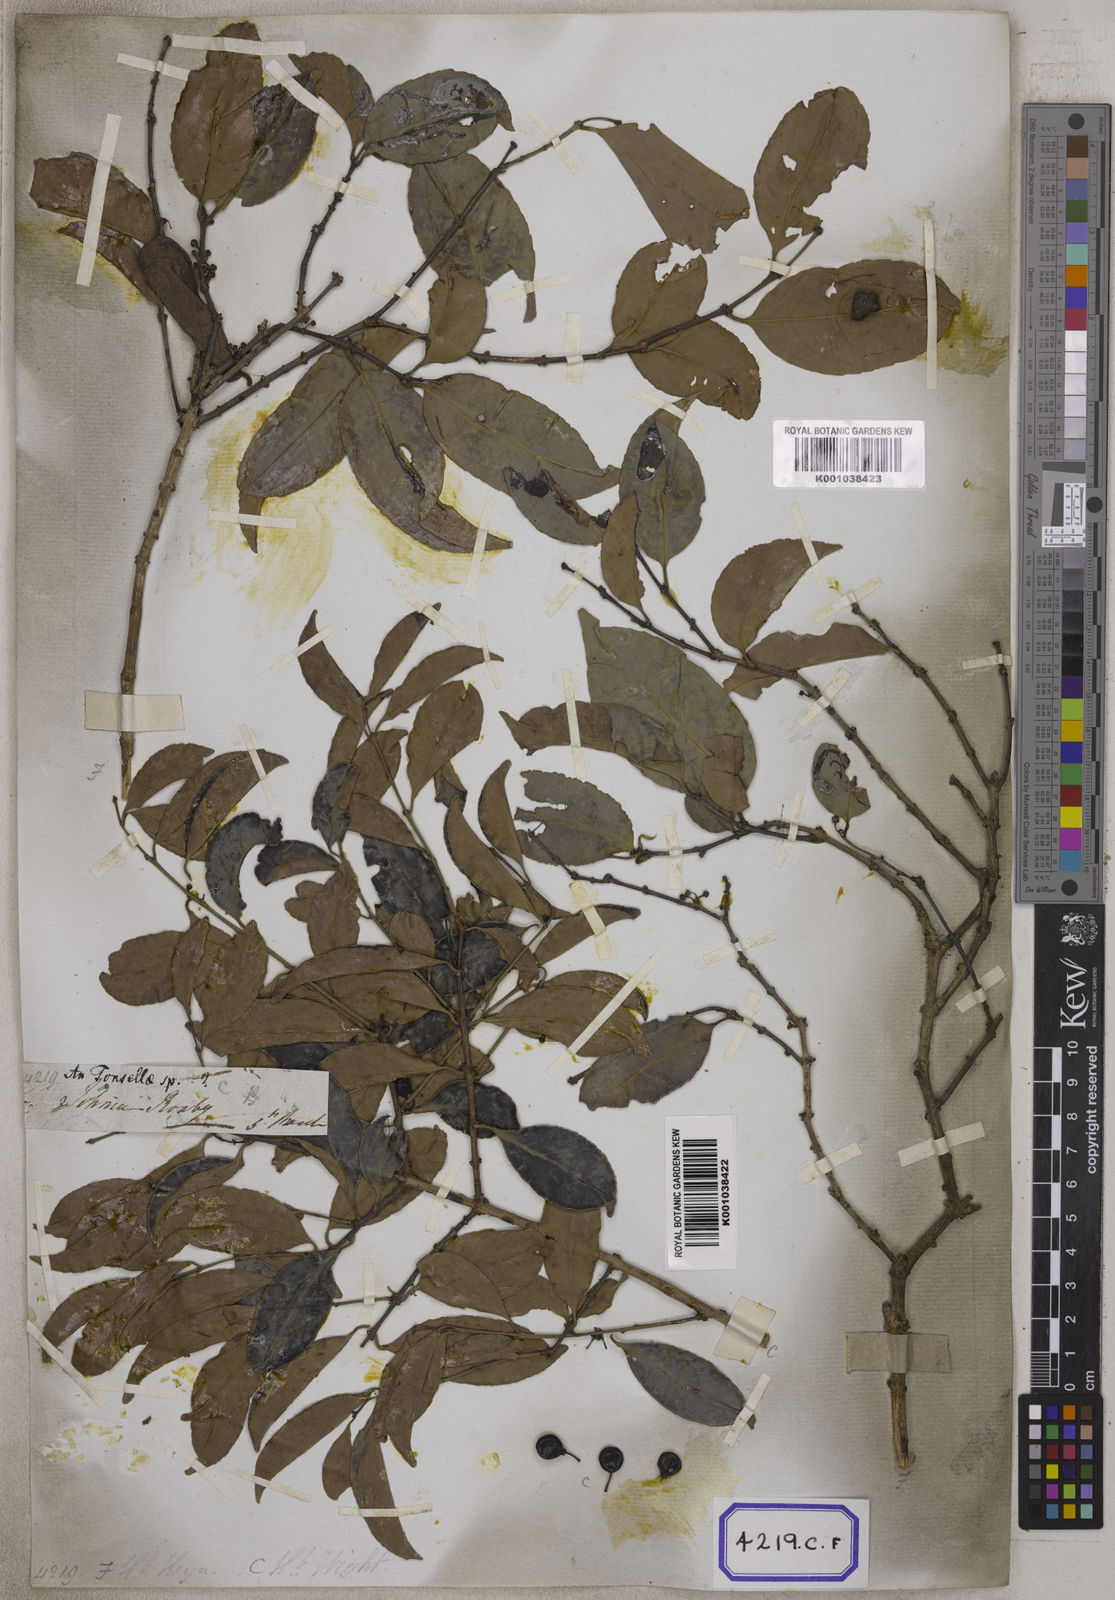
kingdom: Plantae
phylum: Tracheophyta
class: Magnoliopsida
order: Celastrales
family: Celastraceae
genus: Salacia
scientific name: Salacia chinensis
